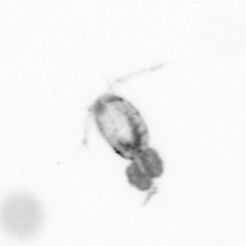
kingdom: Animalia
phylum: Arthropoda
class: Copepoda
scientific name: Copepoda
